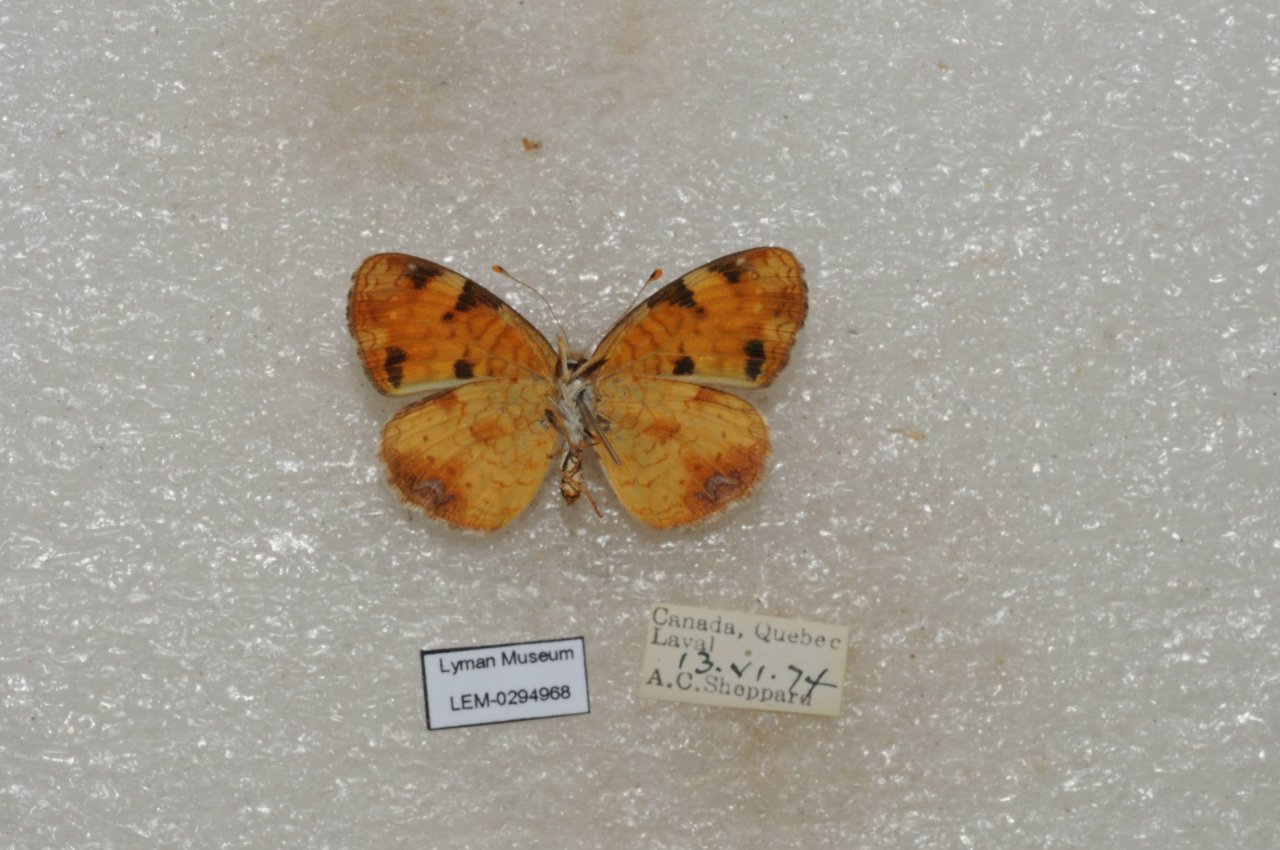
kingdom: Animalia
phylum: Arthropoda
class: Insecta
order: Lepidoptera
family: Nymphalidae
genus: Phyciodes
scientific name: Phyciodes tharos
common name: Northern Crescent
